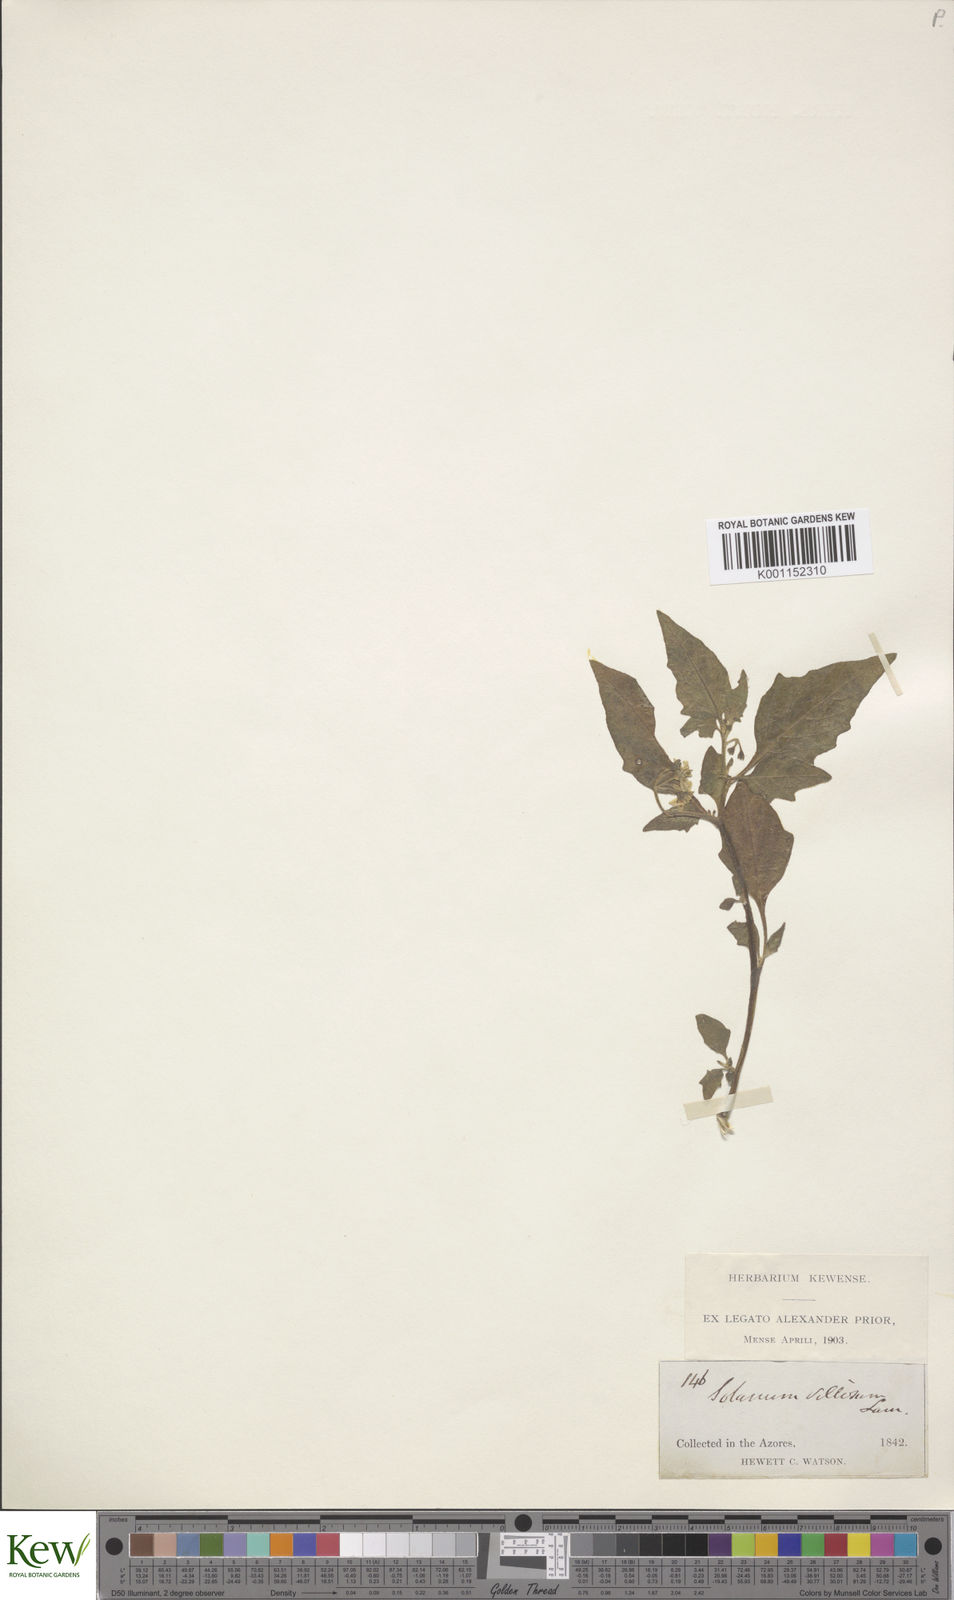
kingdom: Plantae
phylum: Tracheophyta
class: Magnoliopsida
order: Solanales
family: Solanaceae
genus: Solanum
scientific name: Solanum villosum
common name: Red nightshade
